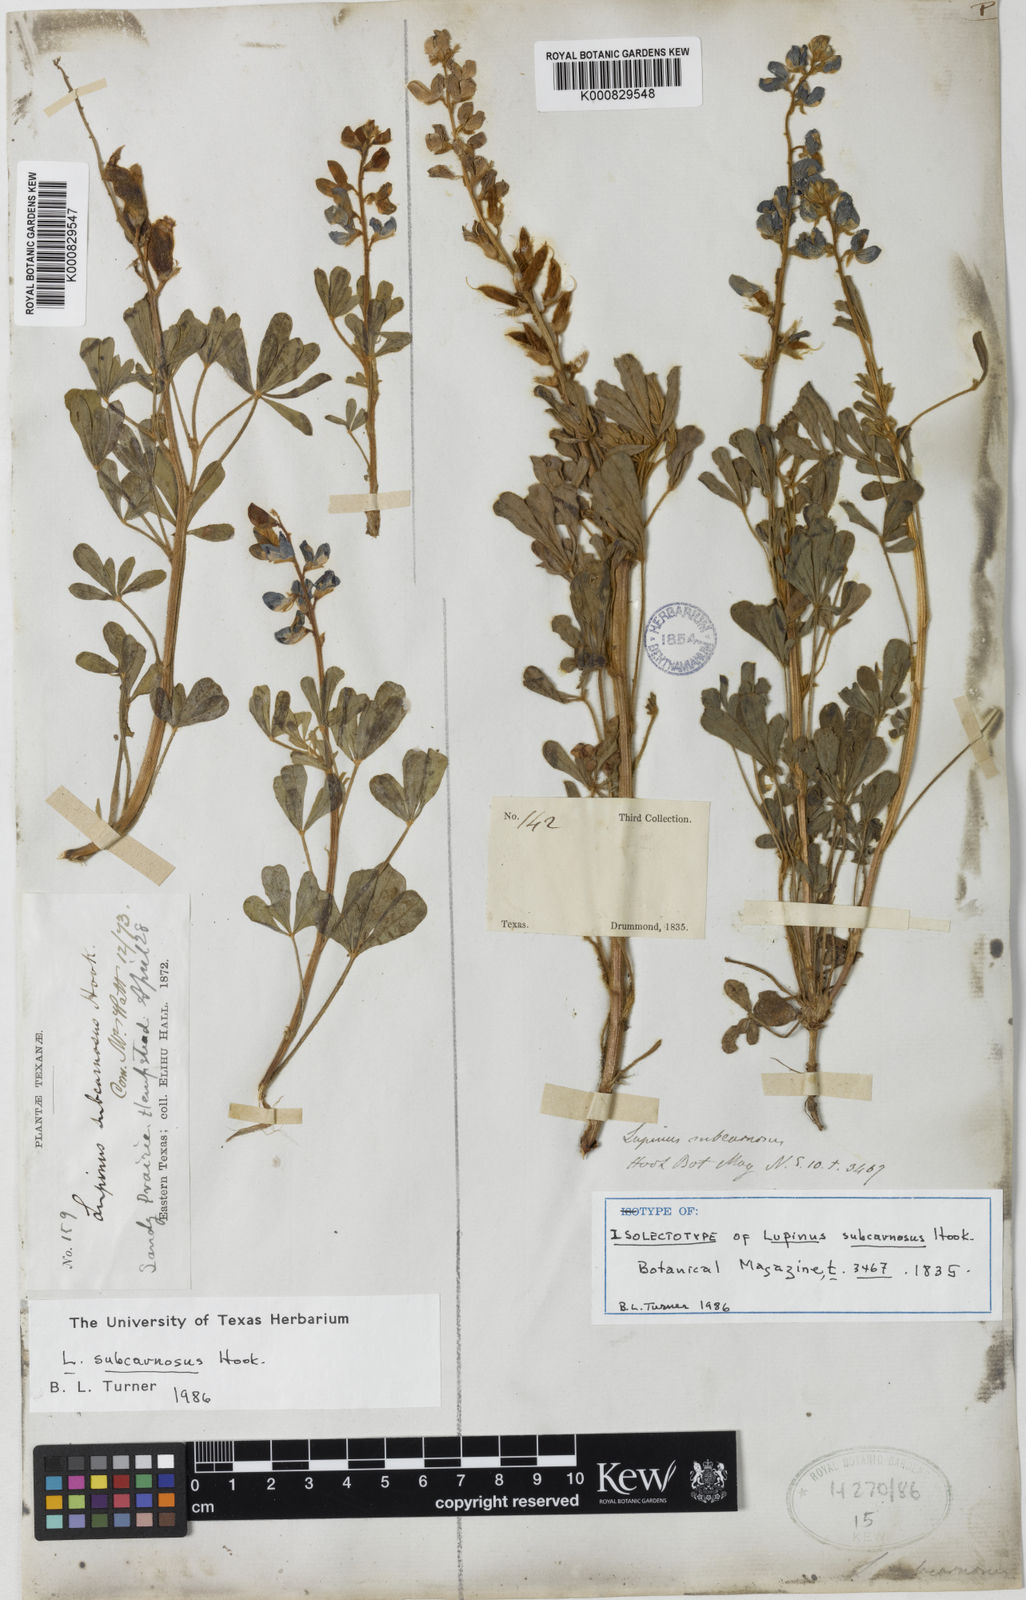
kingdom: Plantae
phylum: Tracheophyta
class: Magnoliopsida
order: Fabales
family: Fabaceae
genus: Lupinus
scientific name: Lupinus subcarnosus
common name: Texas bluebonnet
